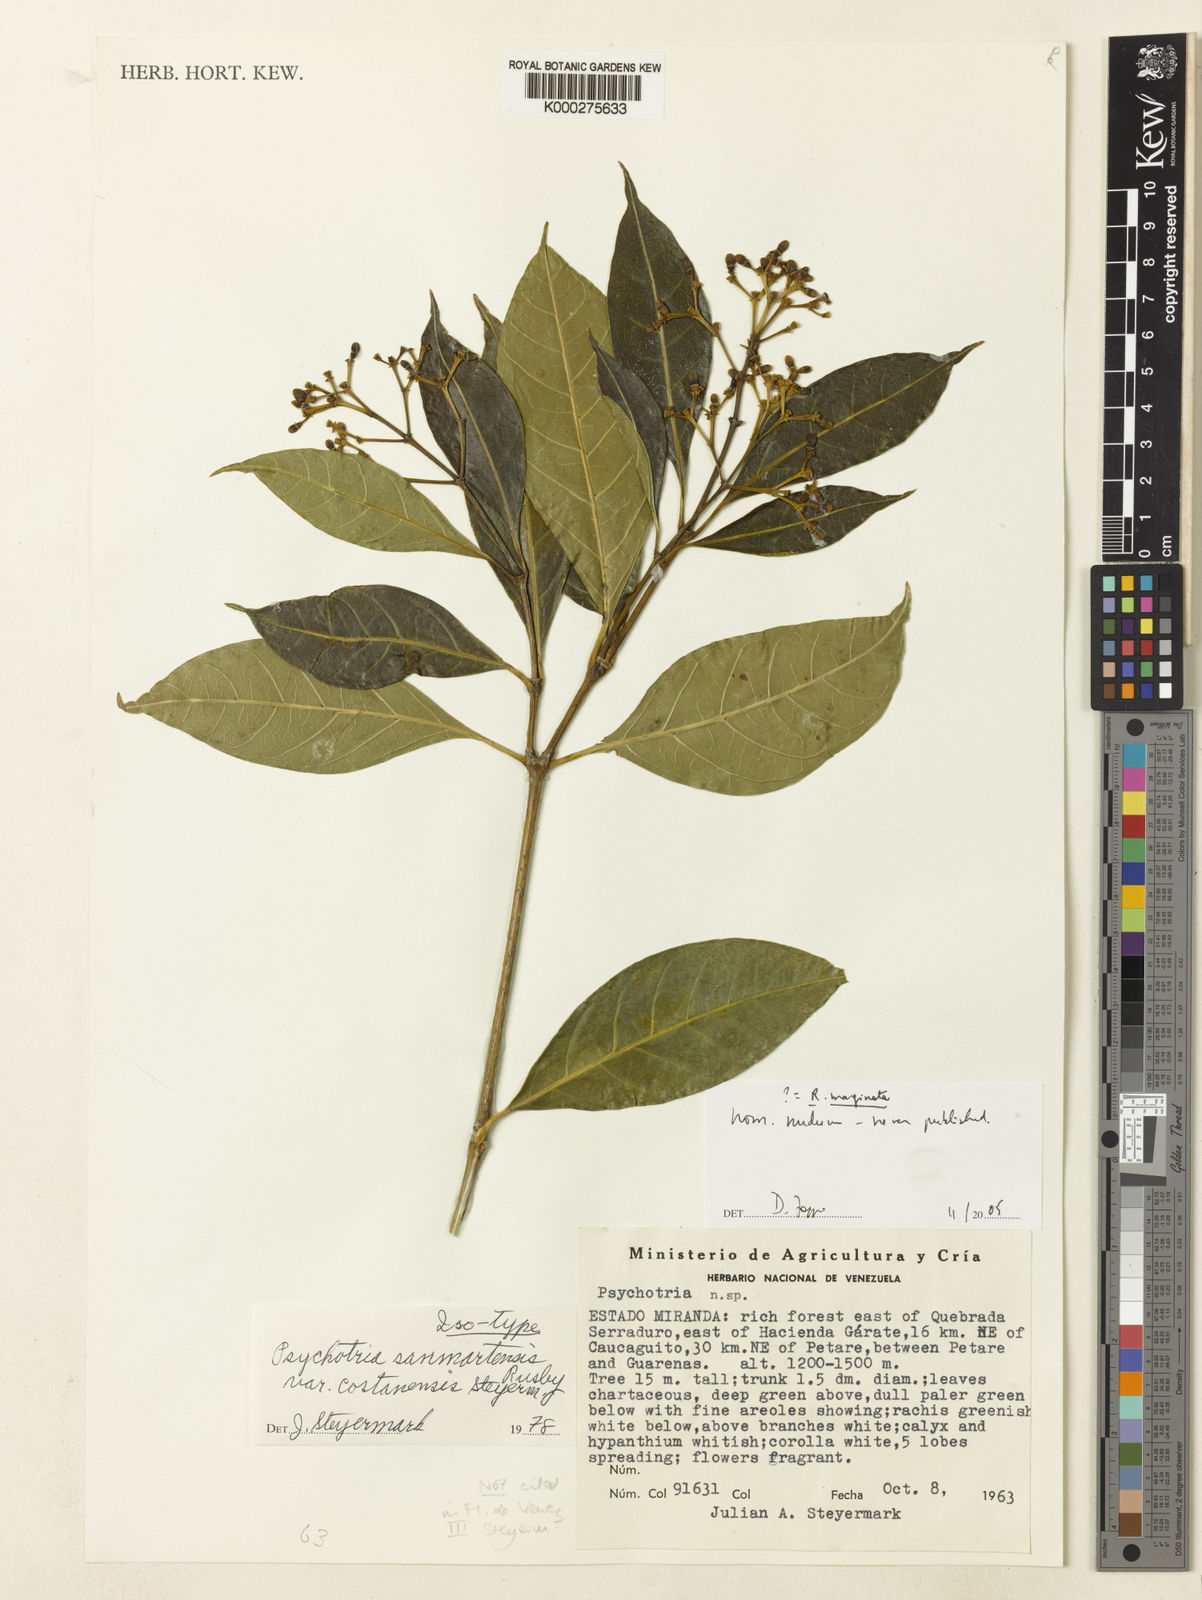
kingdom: Plantae
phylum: Tracheophyta
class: Magnoliopsida
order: Gentianales
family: Rubiaceae
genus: Rudgea
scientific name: Rudgea marginata
